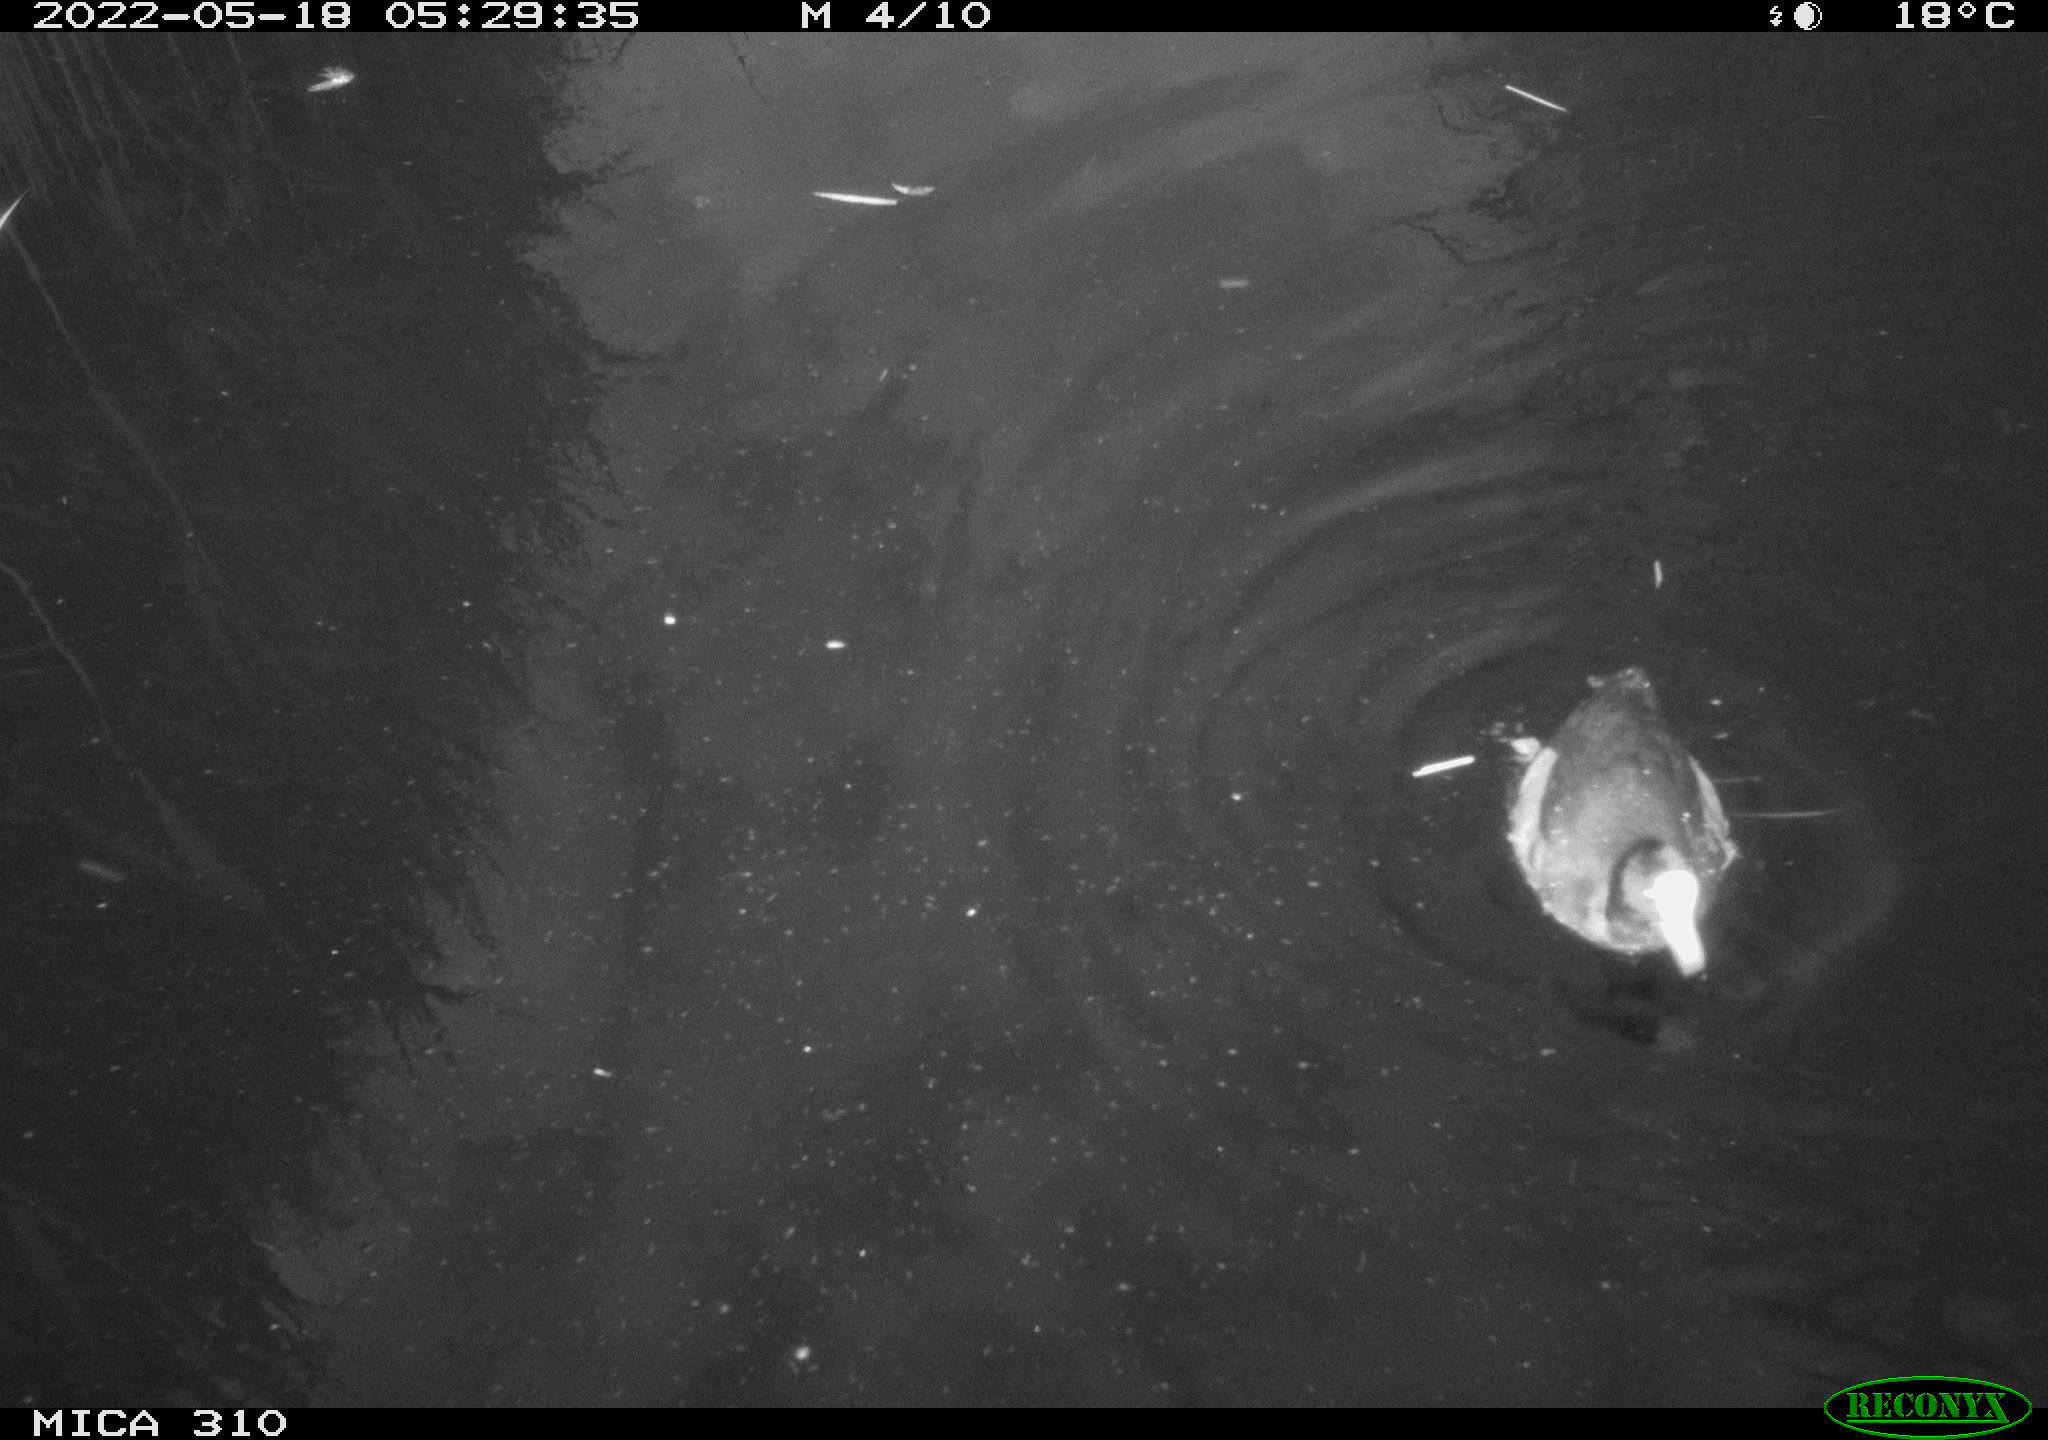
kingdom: Animalia
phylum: Chordata
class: Aves
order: Gruiformes
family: Rallidae
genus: Fulica
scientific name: Fulica atra
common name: Eurasian coot
